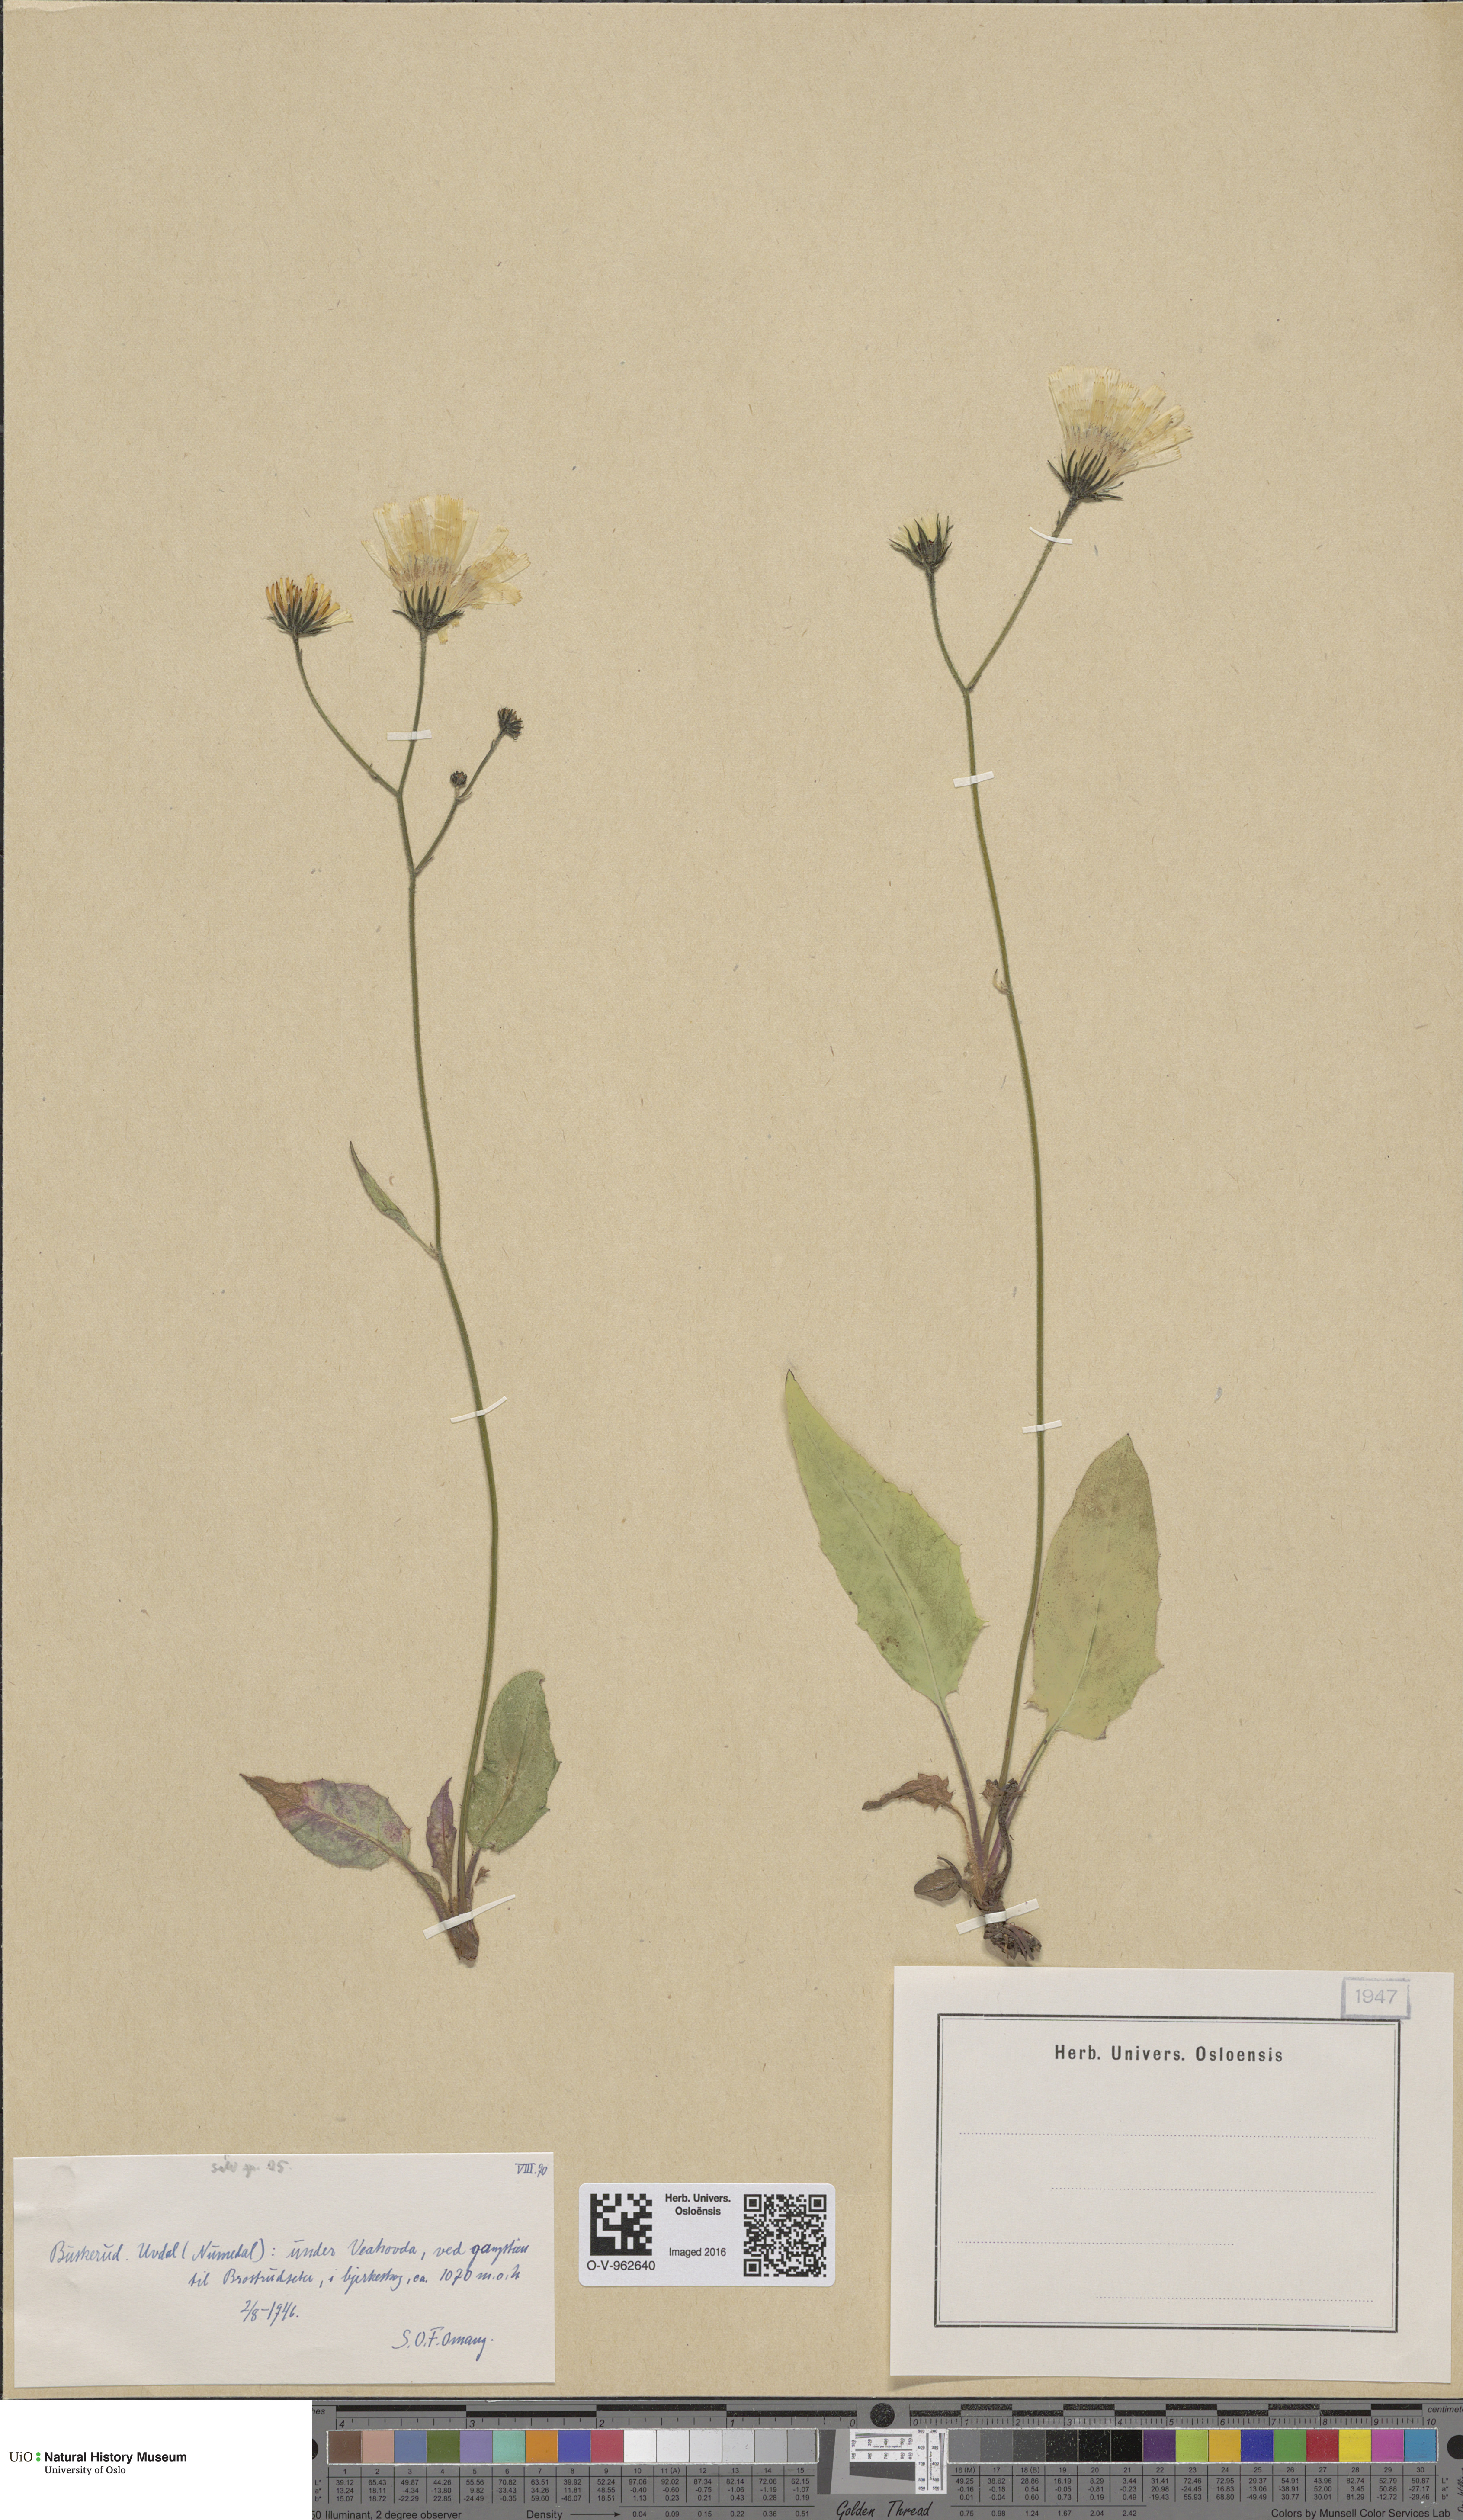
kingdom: Plantae
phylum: Tracheophyta
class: Magnoliopsida
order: Asterales
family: Asteraceae
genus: Hieracium
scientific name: Hieracium
